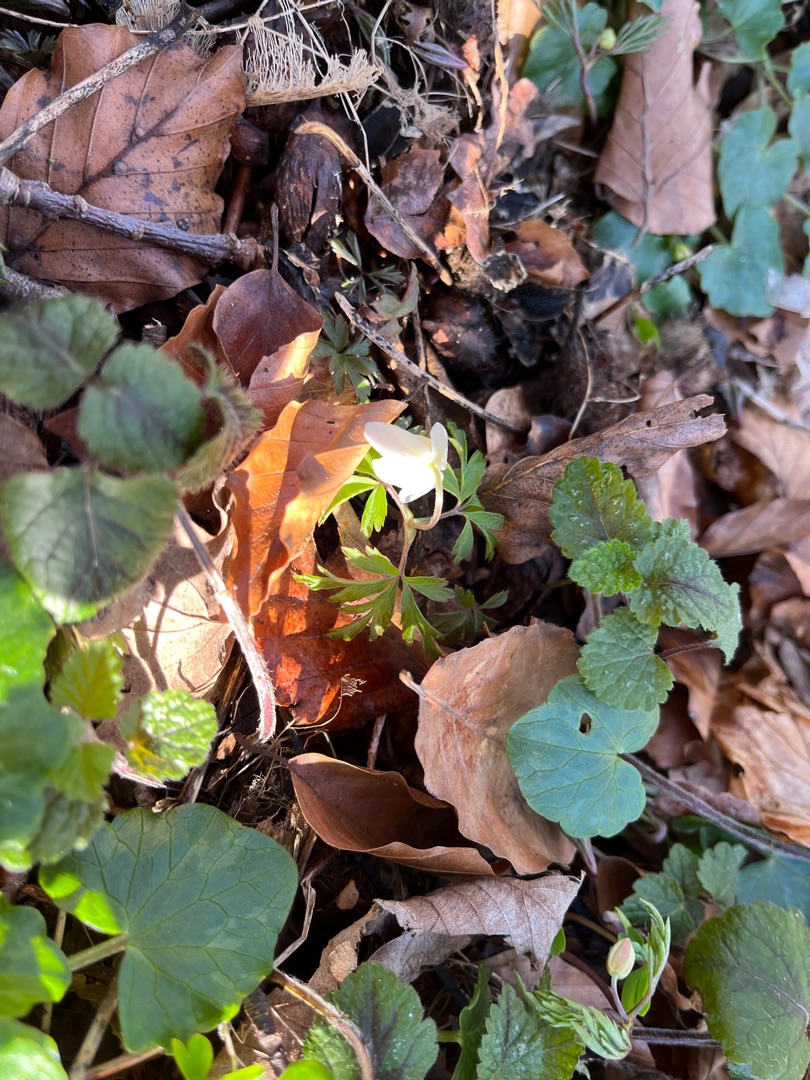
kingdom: Plantae
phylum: Tracheophyta
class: Magnoliopsida
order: Ranunculales
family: Ranunculaceae
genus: Anemone
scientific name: Anemone nemorosa
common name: Hvid anemone
